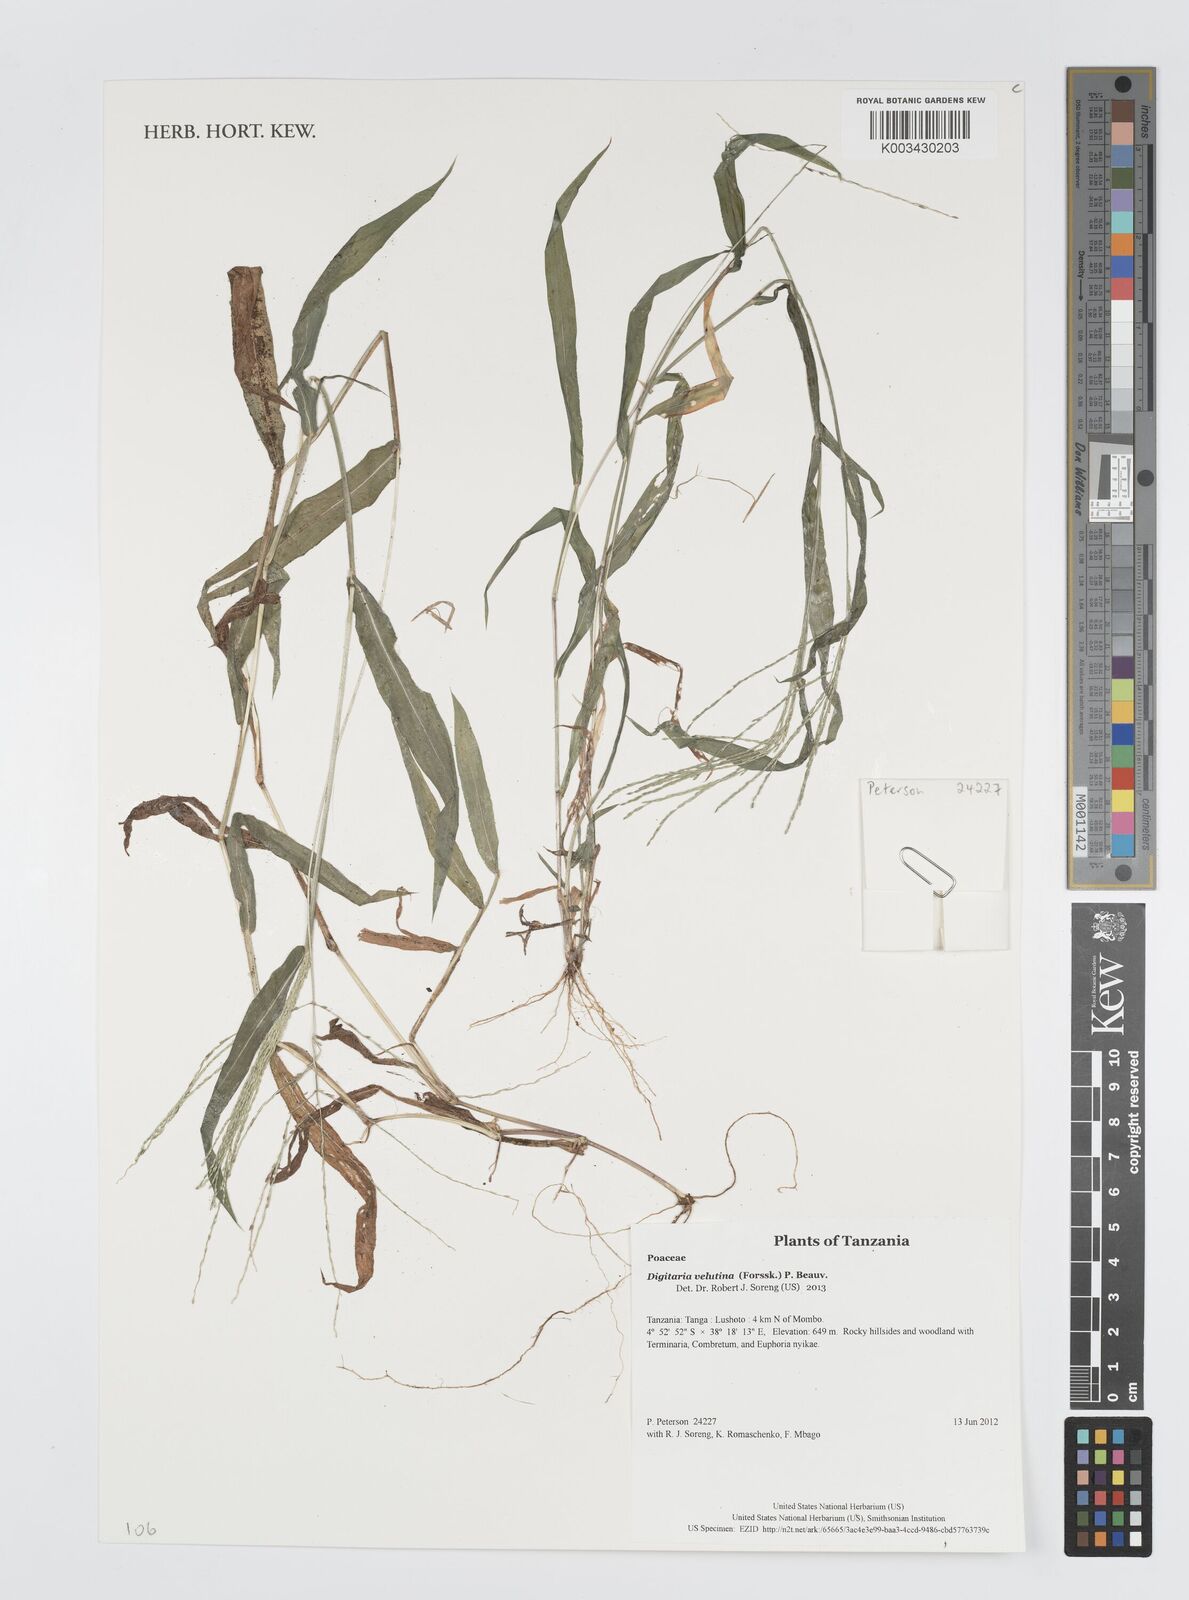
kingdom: Plantae
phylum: Tracheophyta
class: Liliopsida
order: Poales
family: Poaceae
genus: Digitaria
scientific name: Digitaria velutina
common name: Long-plume finger grass
